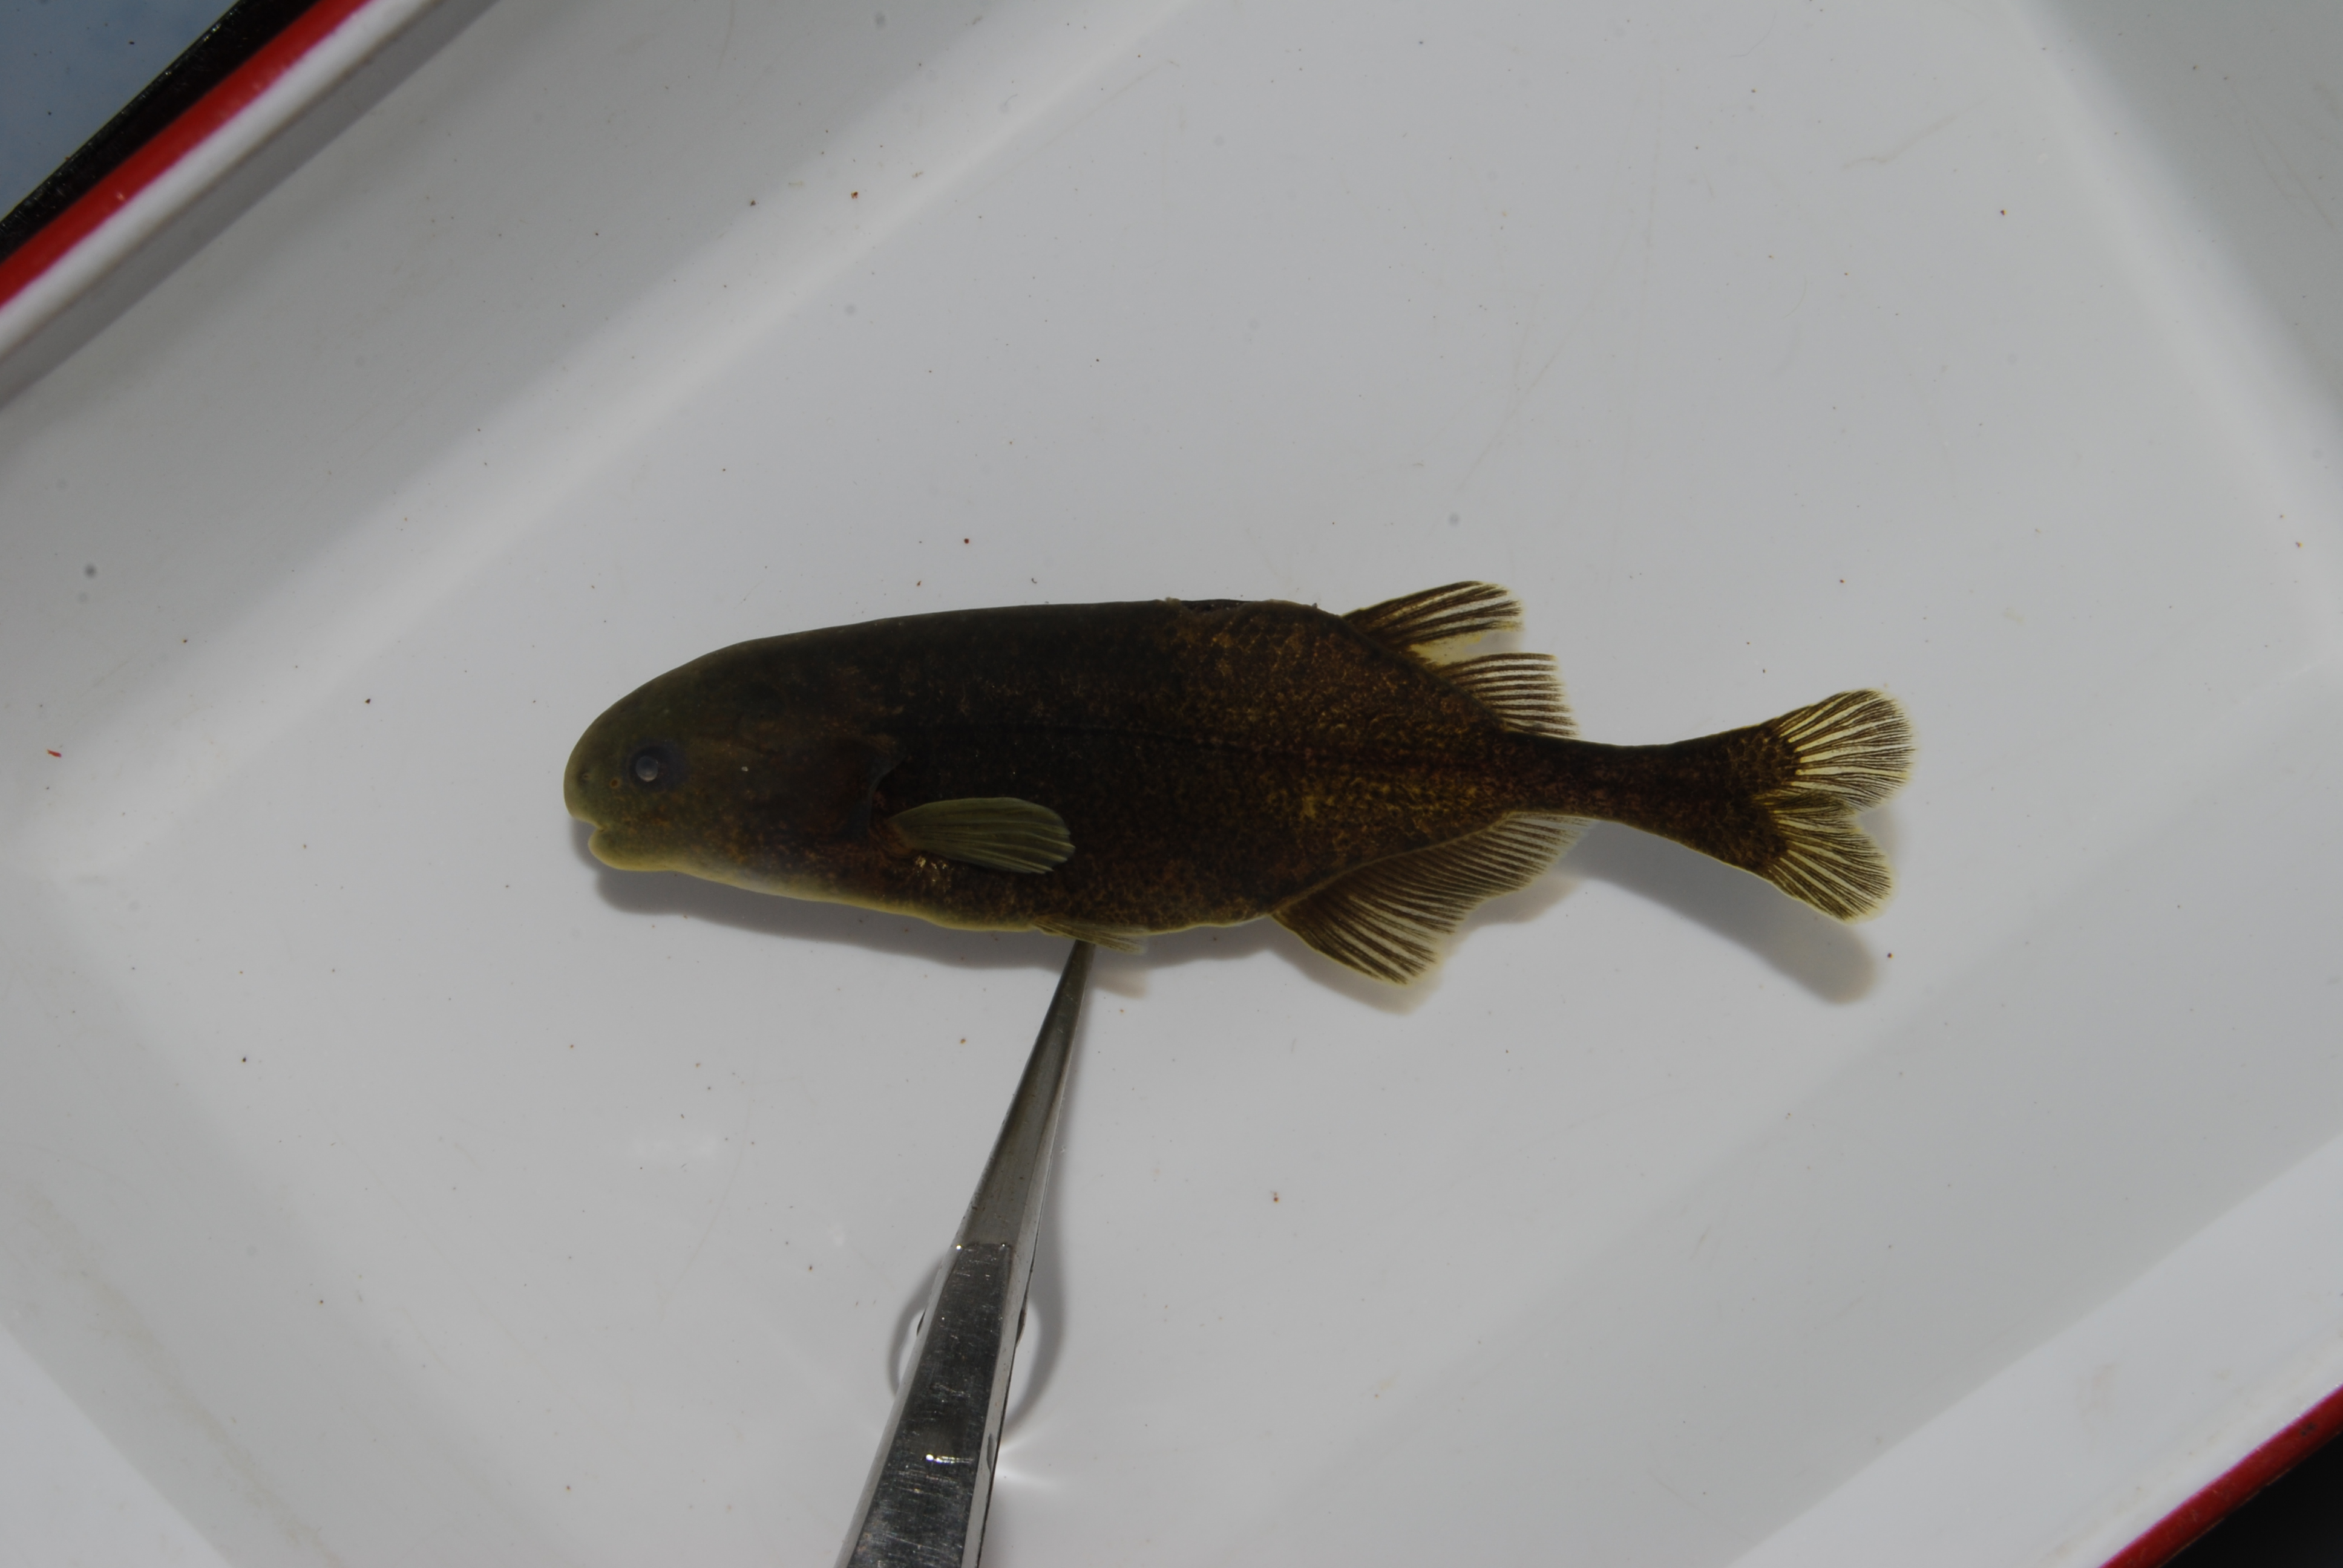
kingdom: Animalia
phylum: Chordata
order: Osteoglossiformes
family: Mormyridae
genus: Pollimyrus
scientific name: Pollimyrus castelnaui
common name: Dwarf stonebasher
